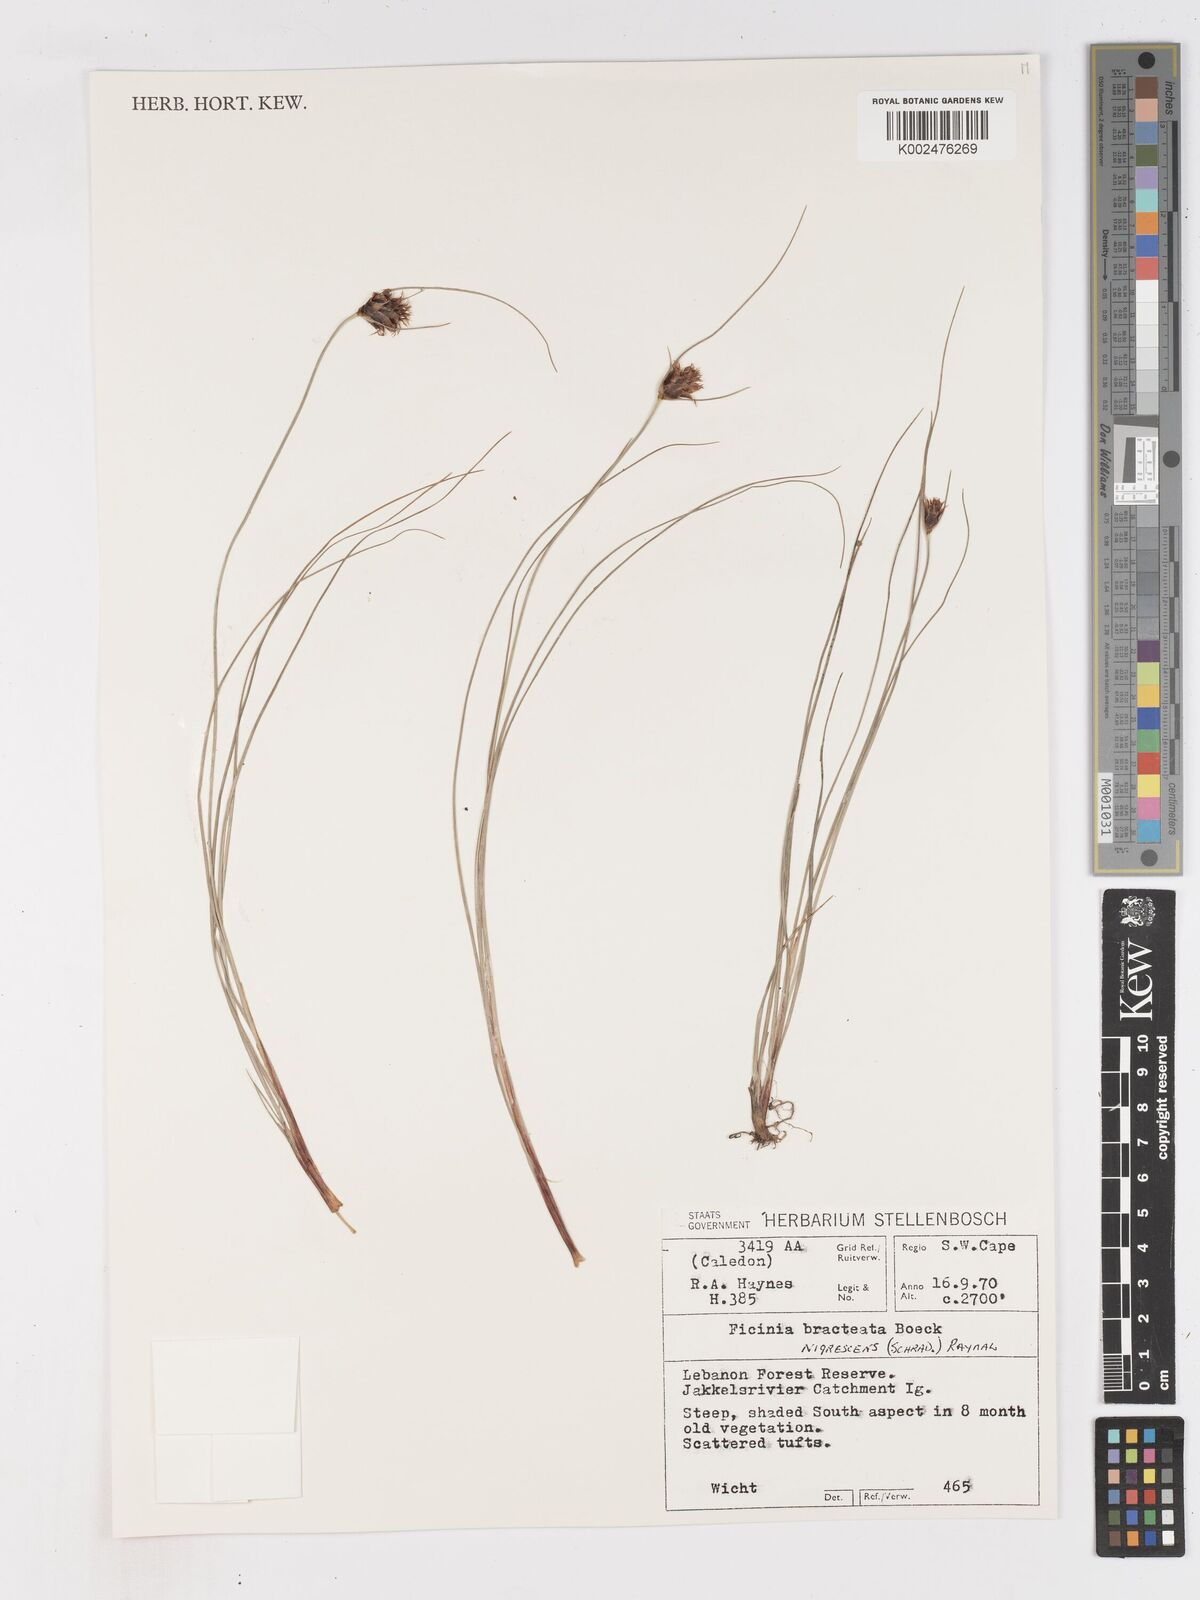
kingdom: Plantae
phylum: Tracheophyta
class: Liliopsida
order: Poales
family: Cyperaceae
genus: Ficinia
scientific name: Ficinia nigrescens
